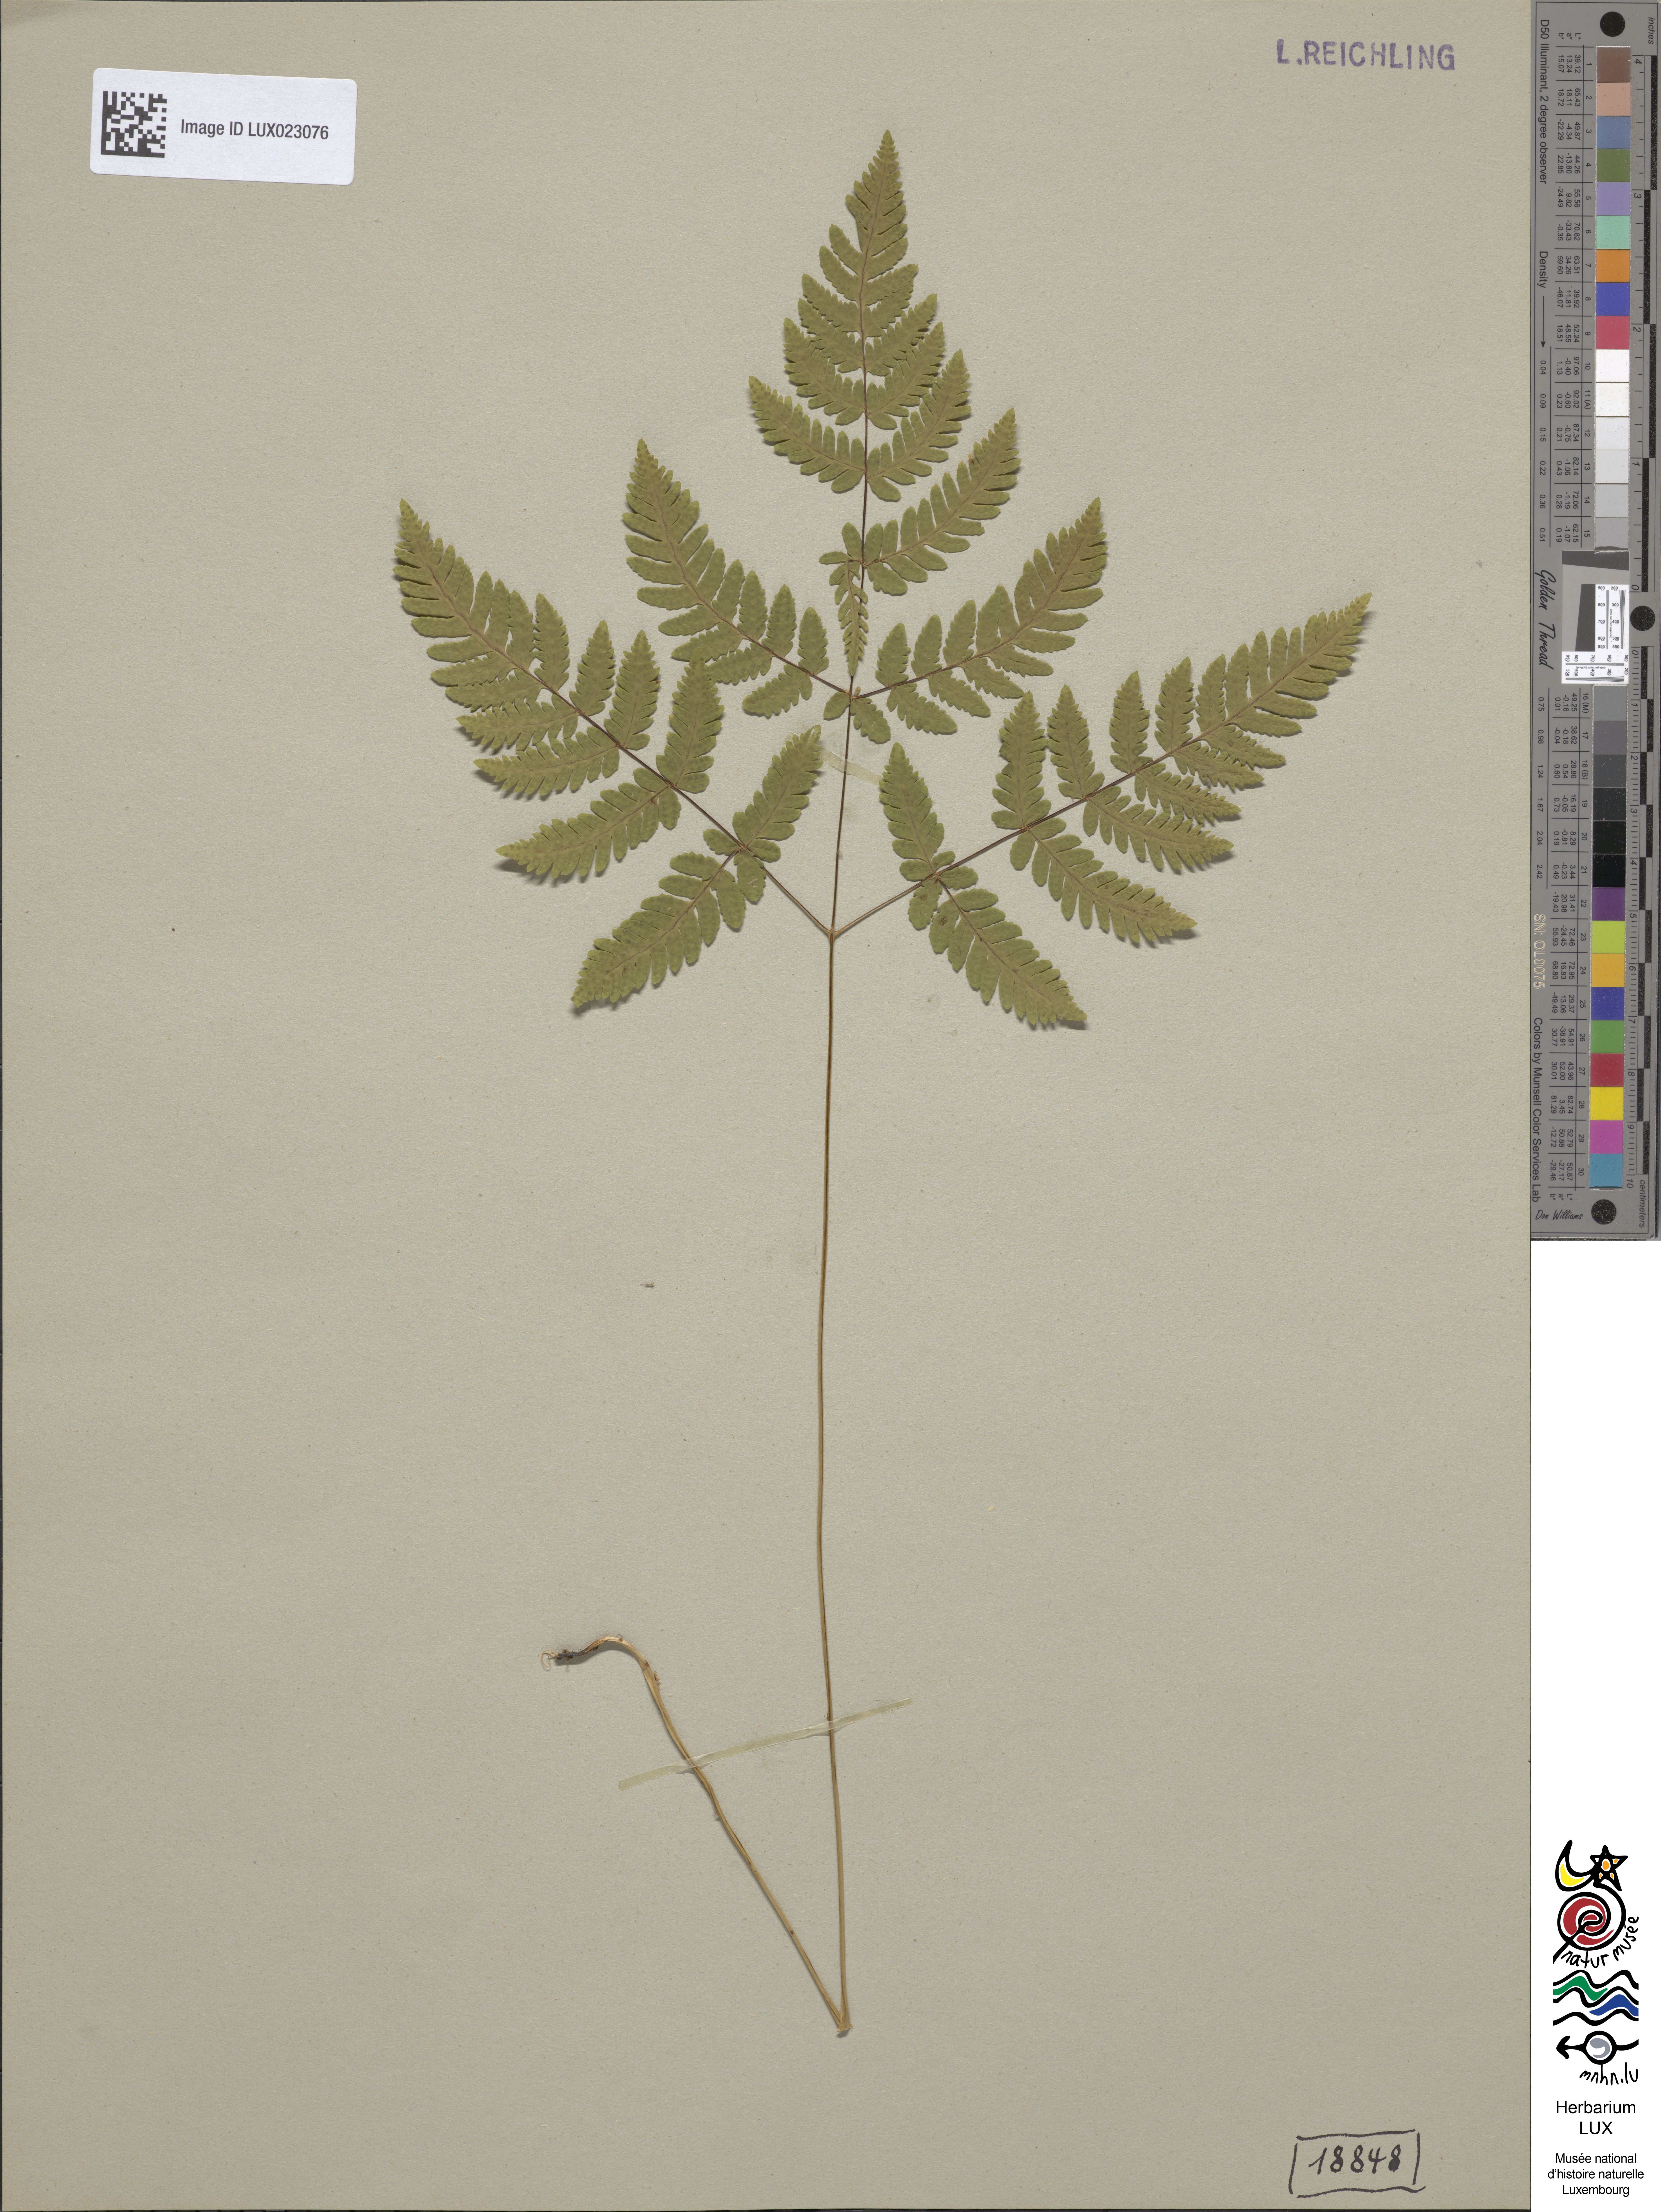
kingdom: Plantae
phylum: Tracheophyta
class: Polypodiopsida
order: Polypodiales
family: Cystopteridaceae
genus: Gymnocarpium
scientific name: Gymnocarpium dryopteris
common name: Oak fern
